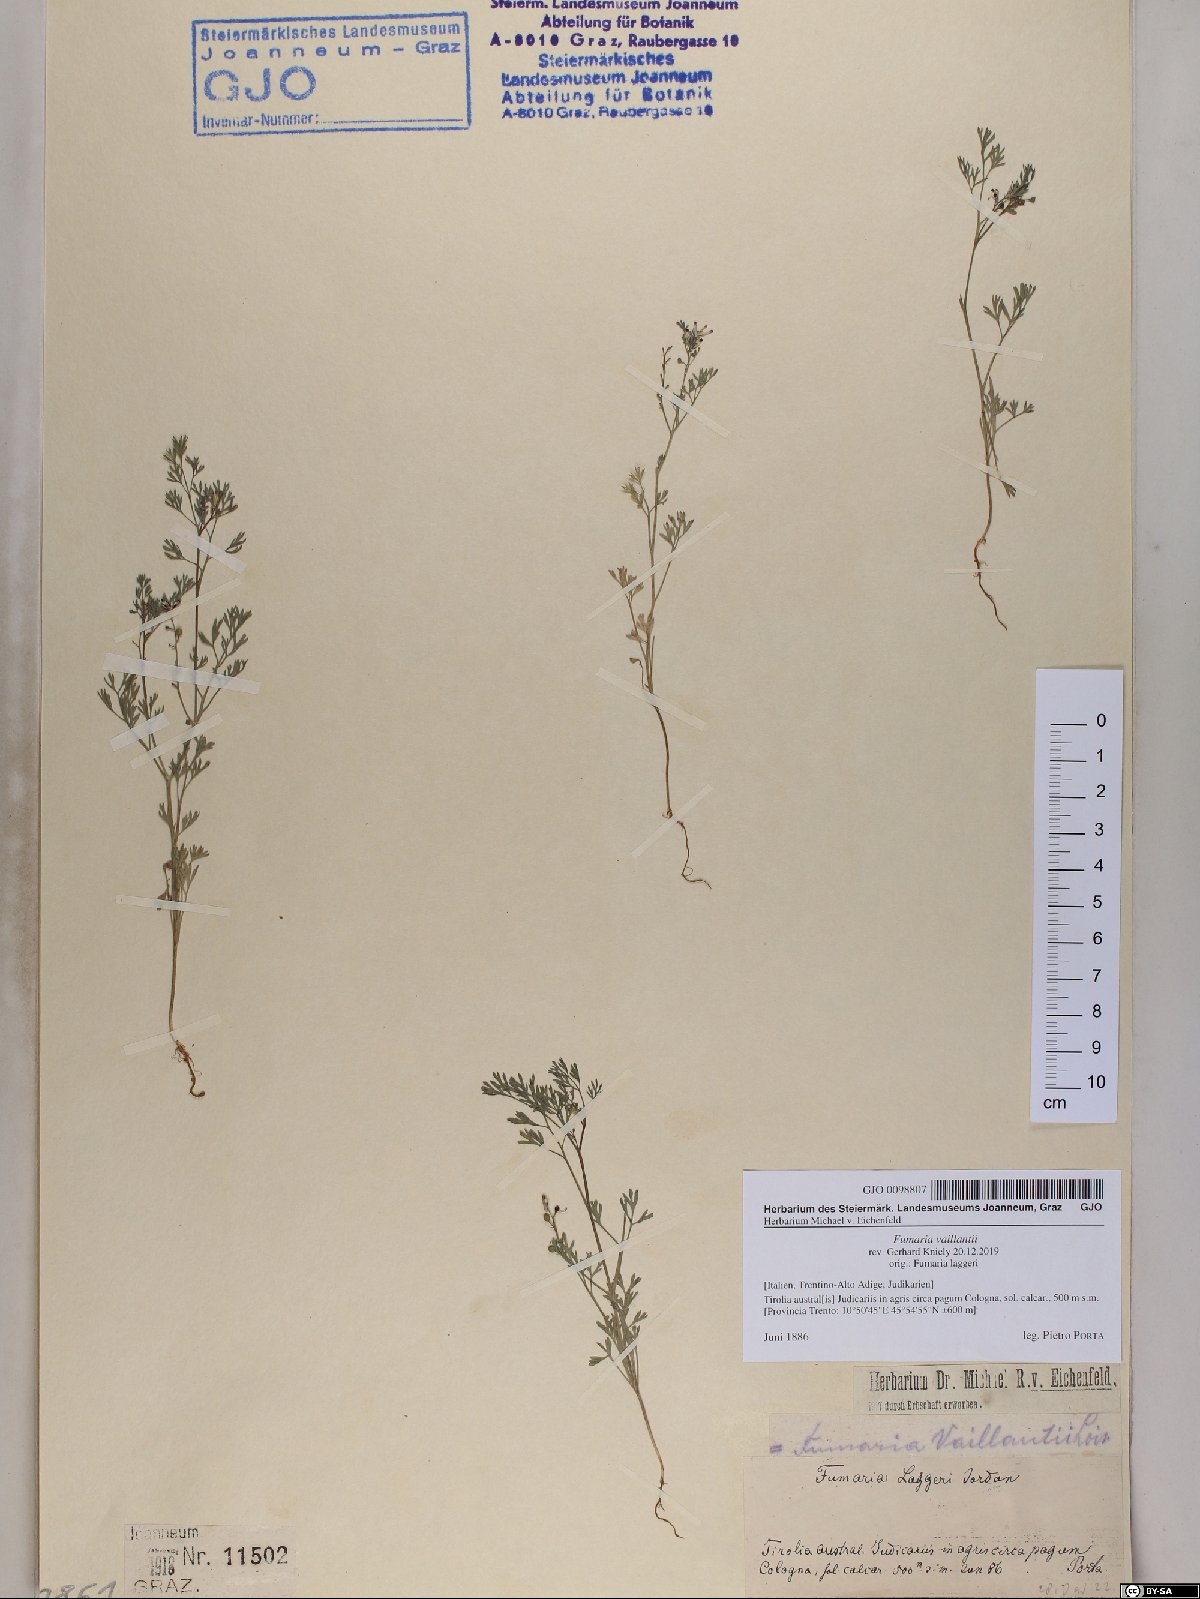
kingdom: Plantae
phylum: Tracheophyta
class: Magnoliopsida
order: Ranunculales
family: Papaveraceae
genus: Fumaria
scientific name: Fumaria vaillantii
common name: Few-flowered fumitory
